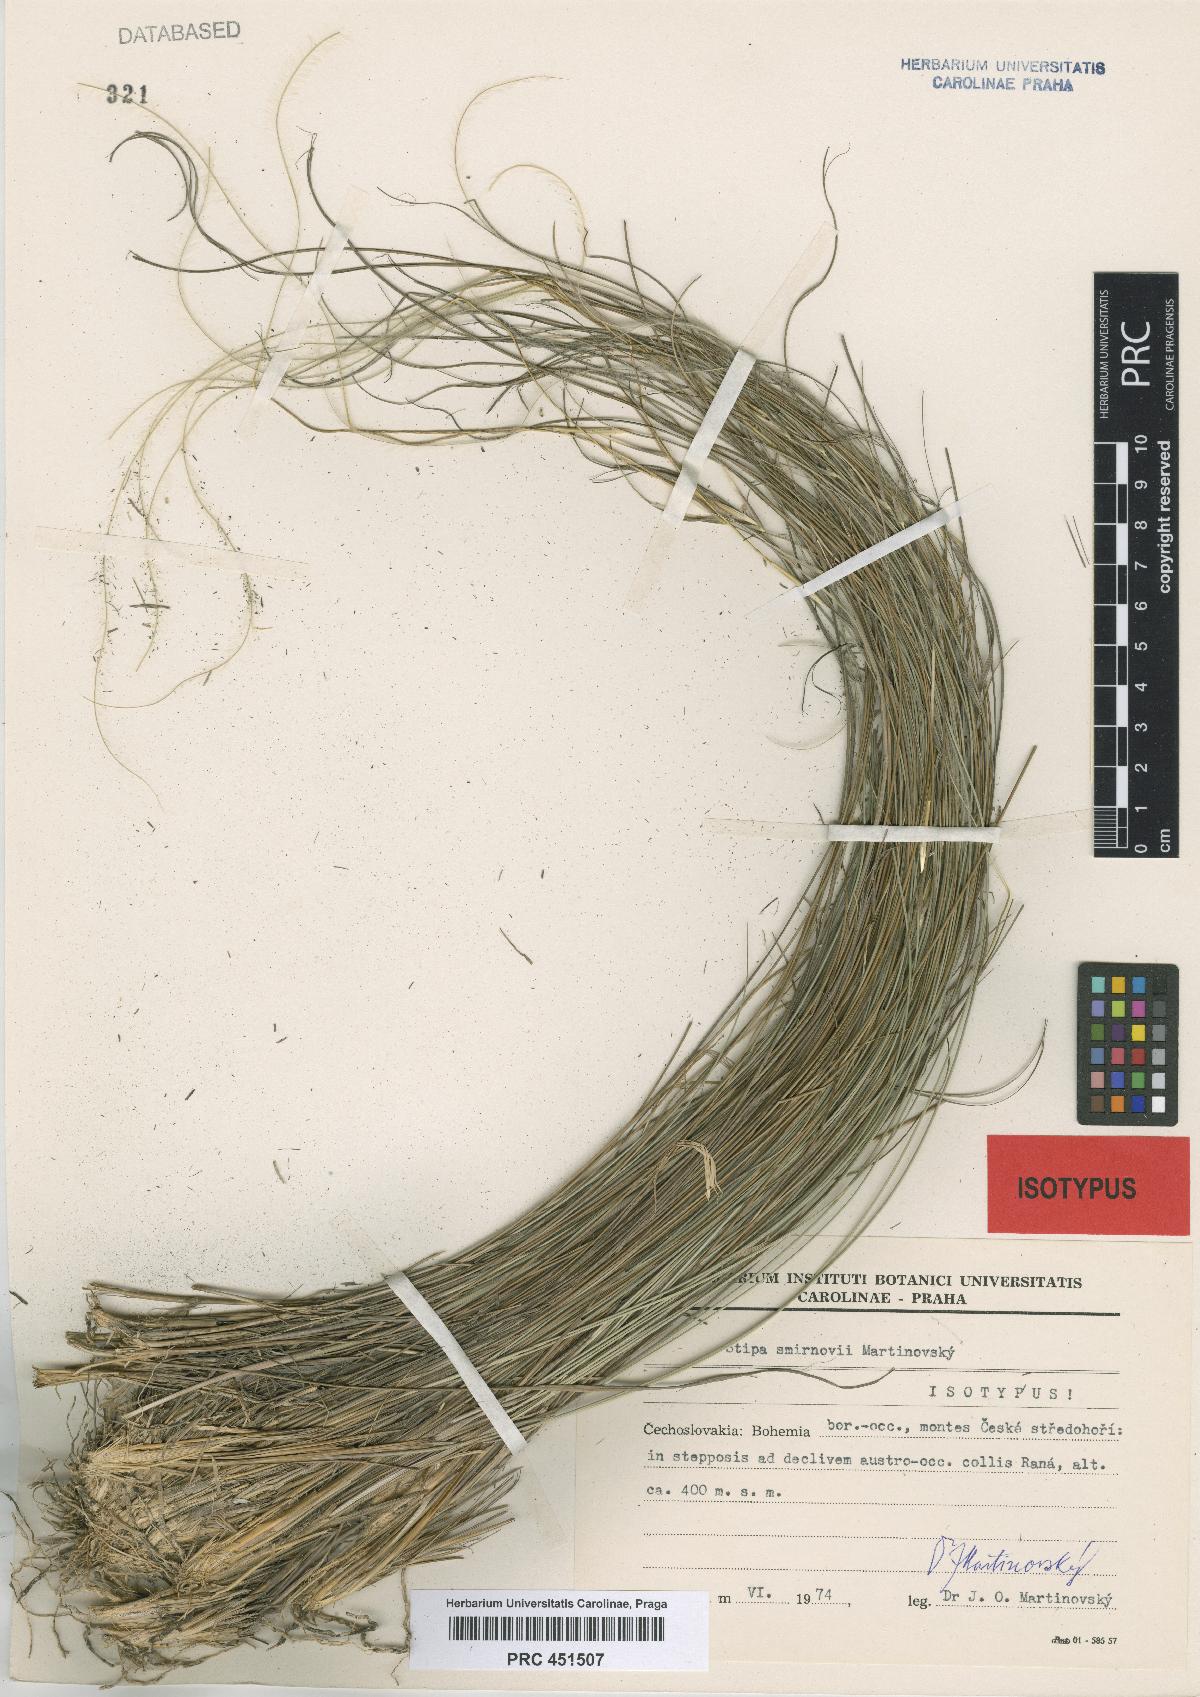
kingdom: Plantae
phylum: Tracheophyta
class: Liliopsida
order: Poales
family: Poaceae
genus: Stipa
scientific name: Stipa zalesskyi
